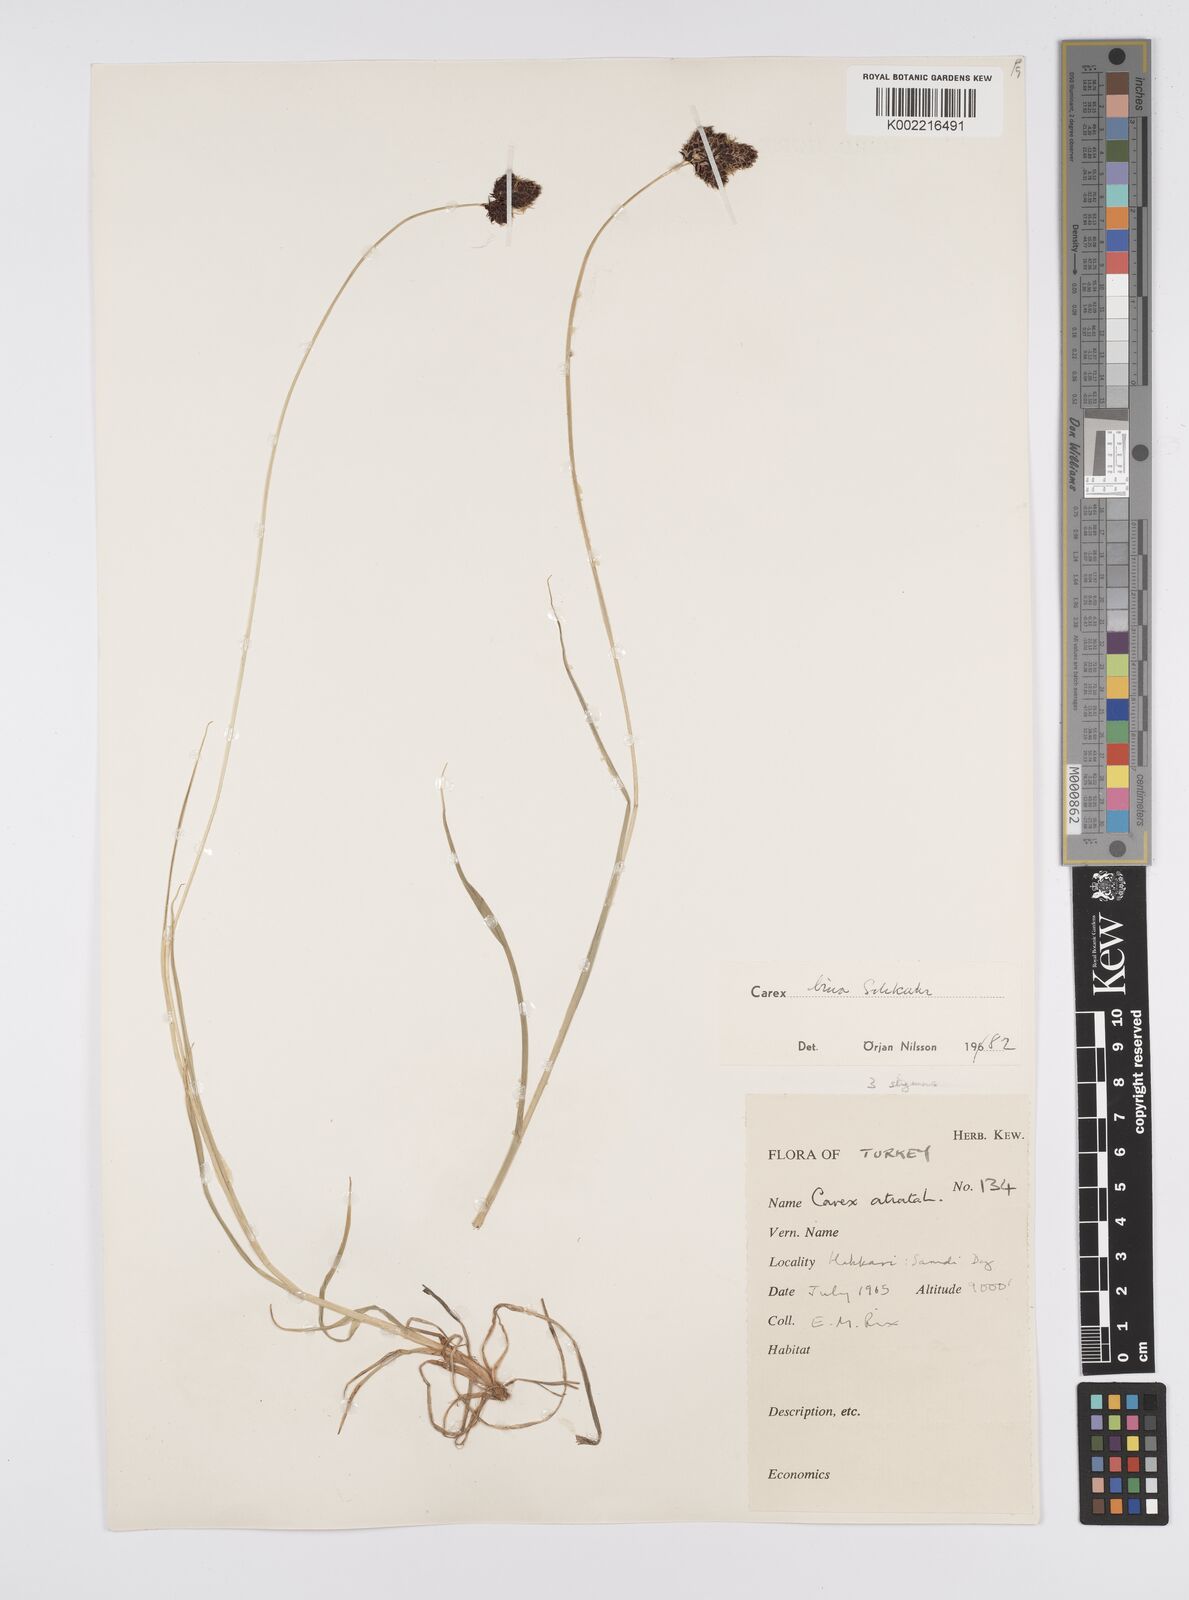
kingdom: Plantae
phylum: Tracheophyta
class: Liliopsida
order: Poales
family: Cyperaceae
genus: Carex
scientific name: Carex parviflora
